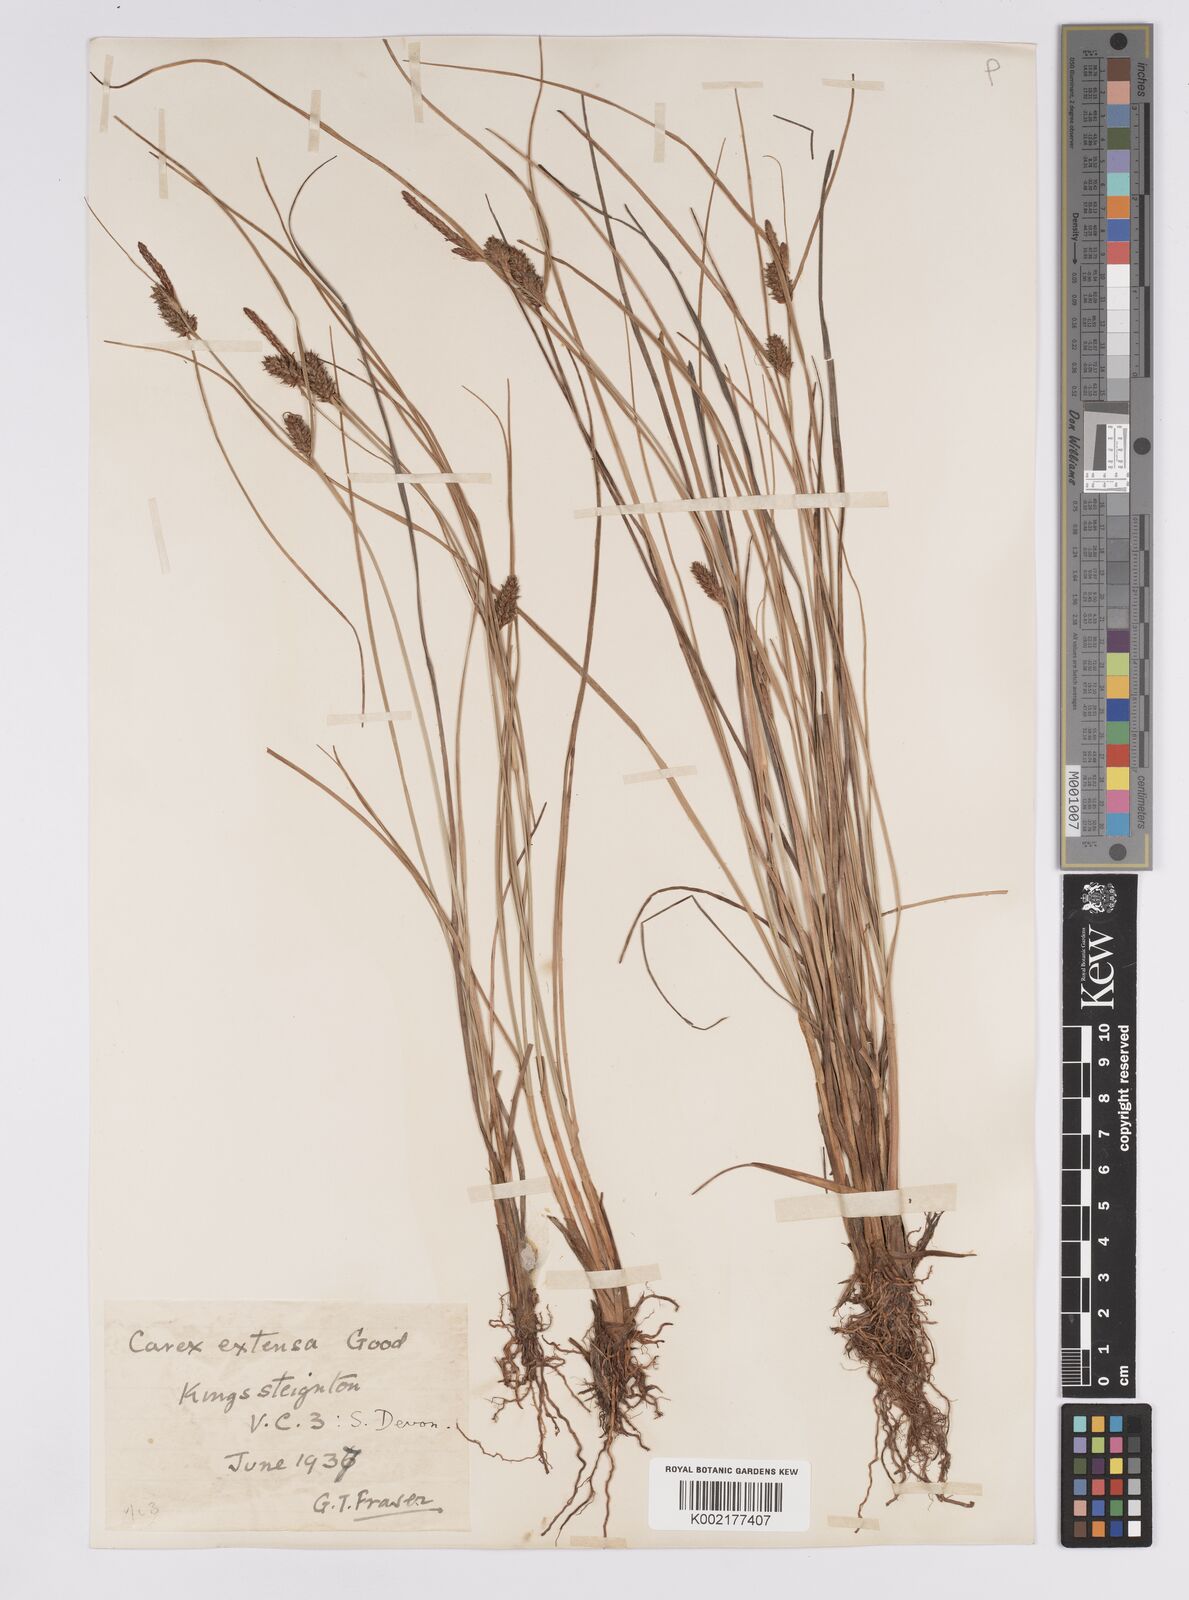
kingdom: Plantae
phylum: Tracheophyta
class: Liliopsida
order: Poales
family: Cyperaceae
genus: Carex
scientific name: Carex extensa
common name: Long-bracted sedge
